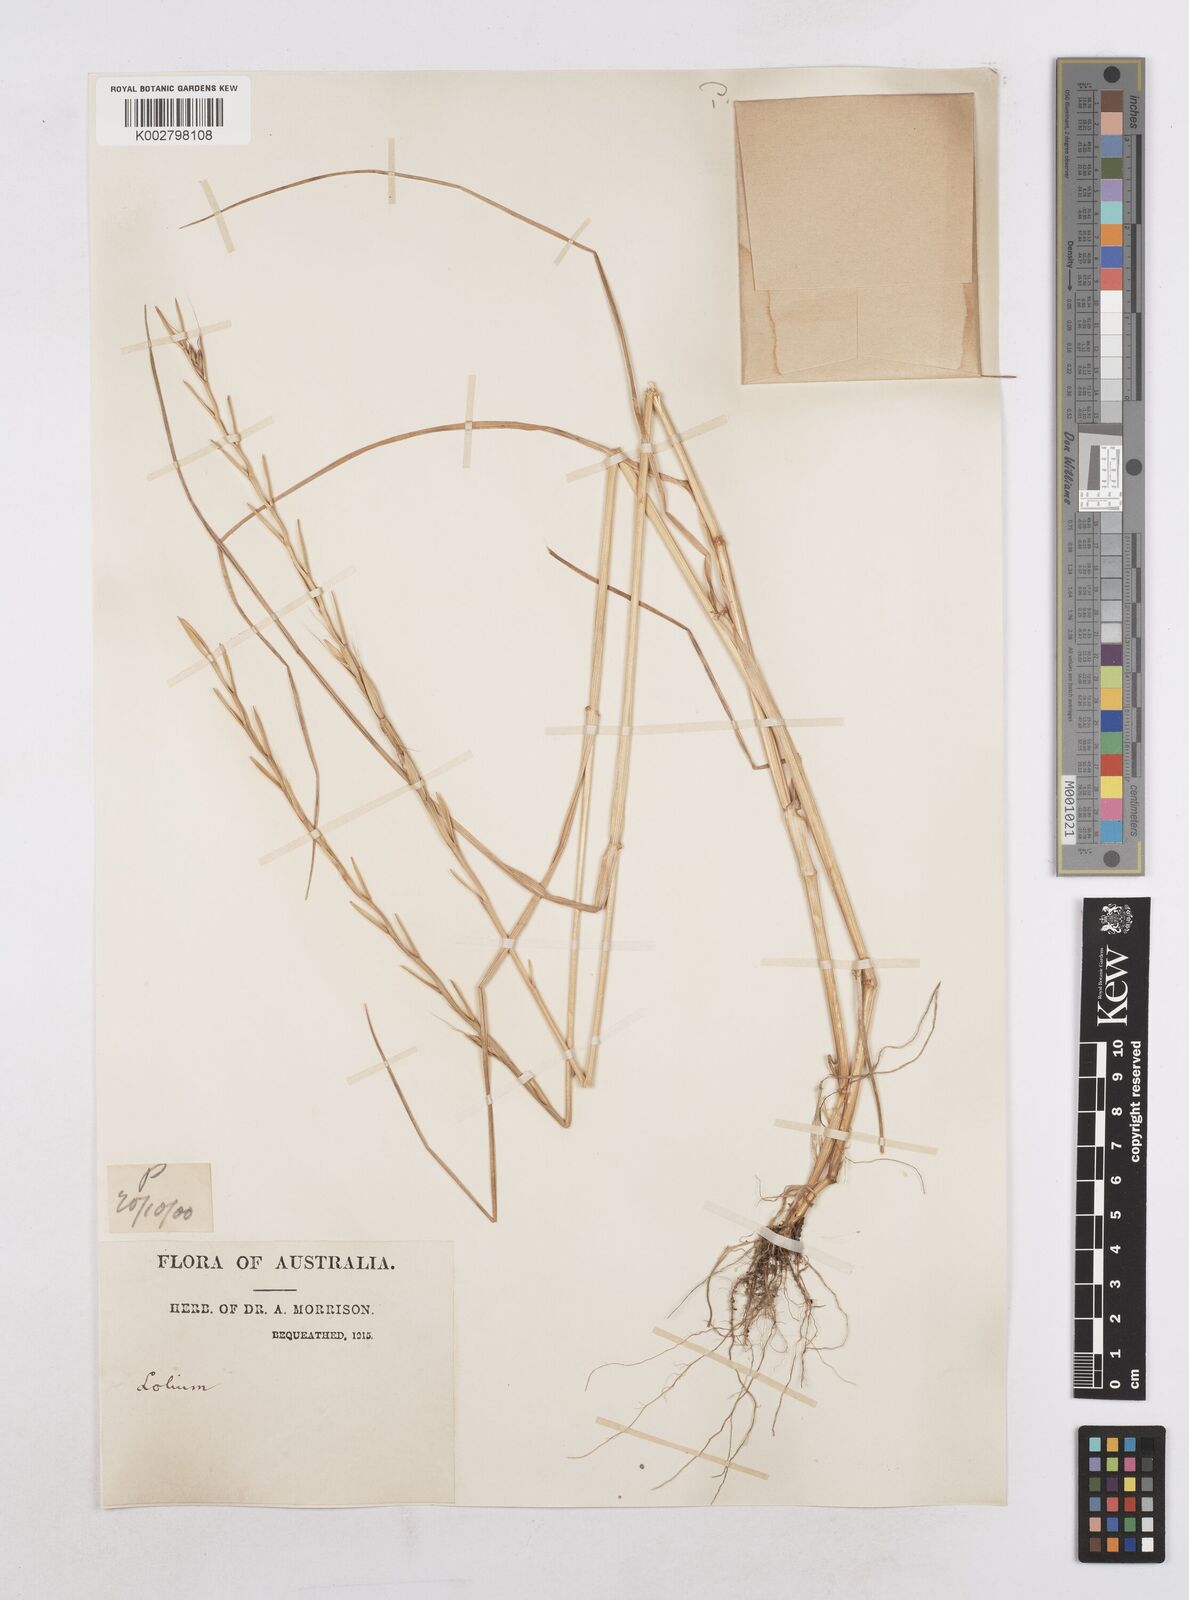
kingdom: Plantae
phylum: Tracheophyta
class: Liliopsida
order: Poales
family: Poaceae
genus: Lolium
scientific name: Lolium temulentum
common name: Darnel
